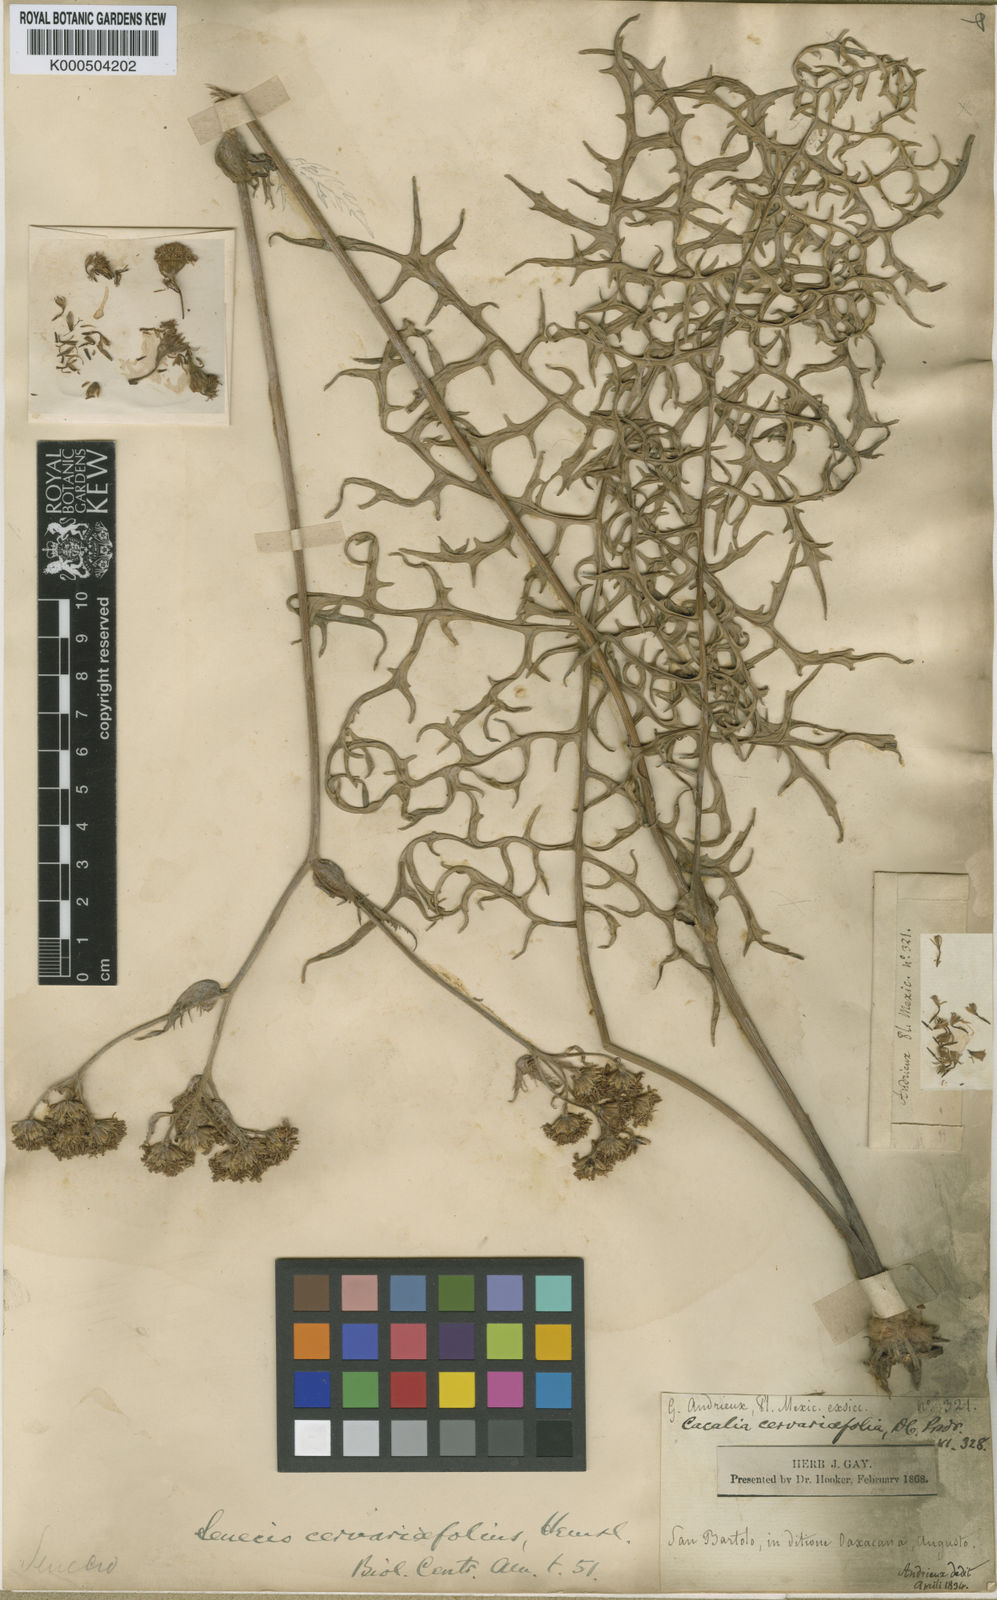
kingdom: Plantae
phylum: Tracheophyta
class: Magnoliopsida
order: Asterales
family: Asteraceae
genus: Psacalium
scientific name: Psacalium cirsiifolium
